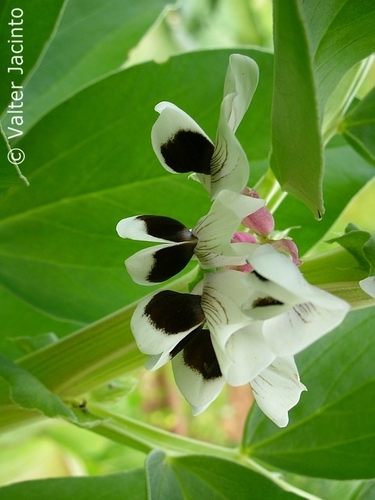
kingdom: Plantae
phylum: Tracheophyta
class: Magnoliopsida
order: Fabales
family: Fabaceae
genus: Vicia
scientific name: Vicia faba
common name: Broad bean
